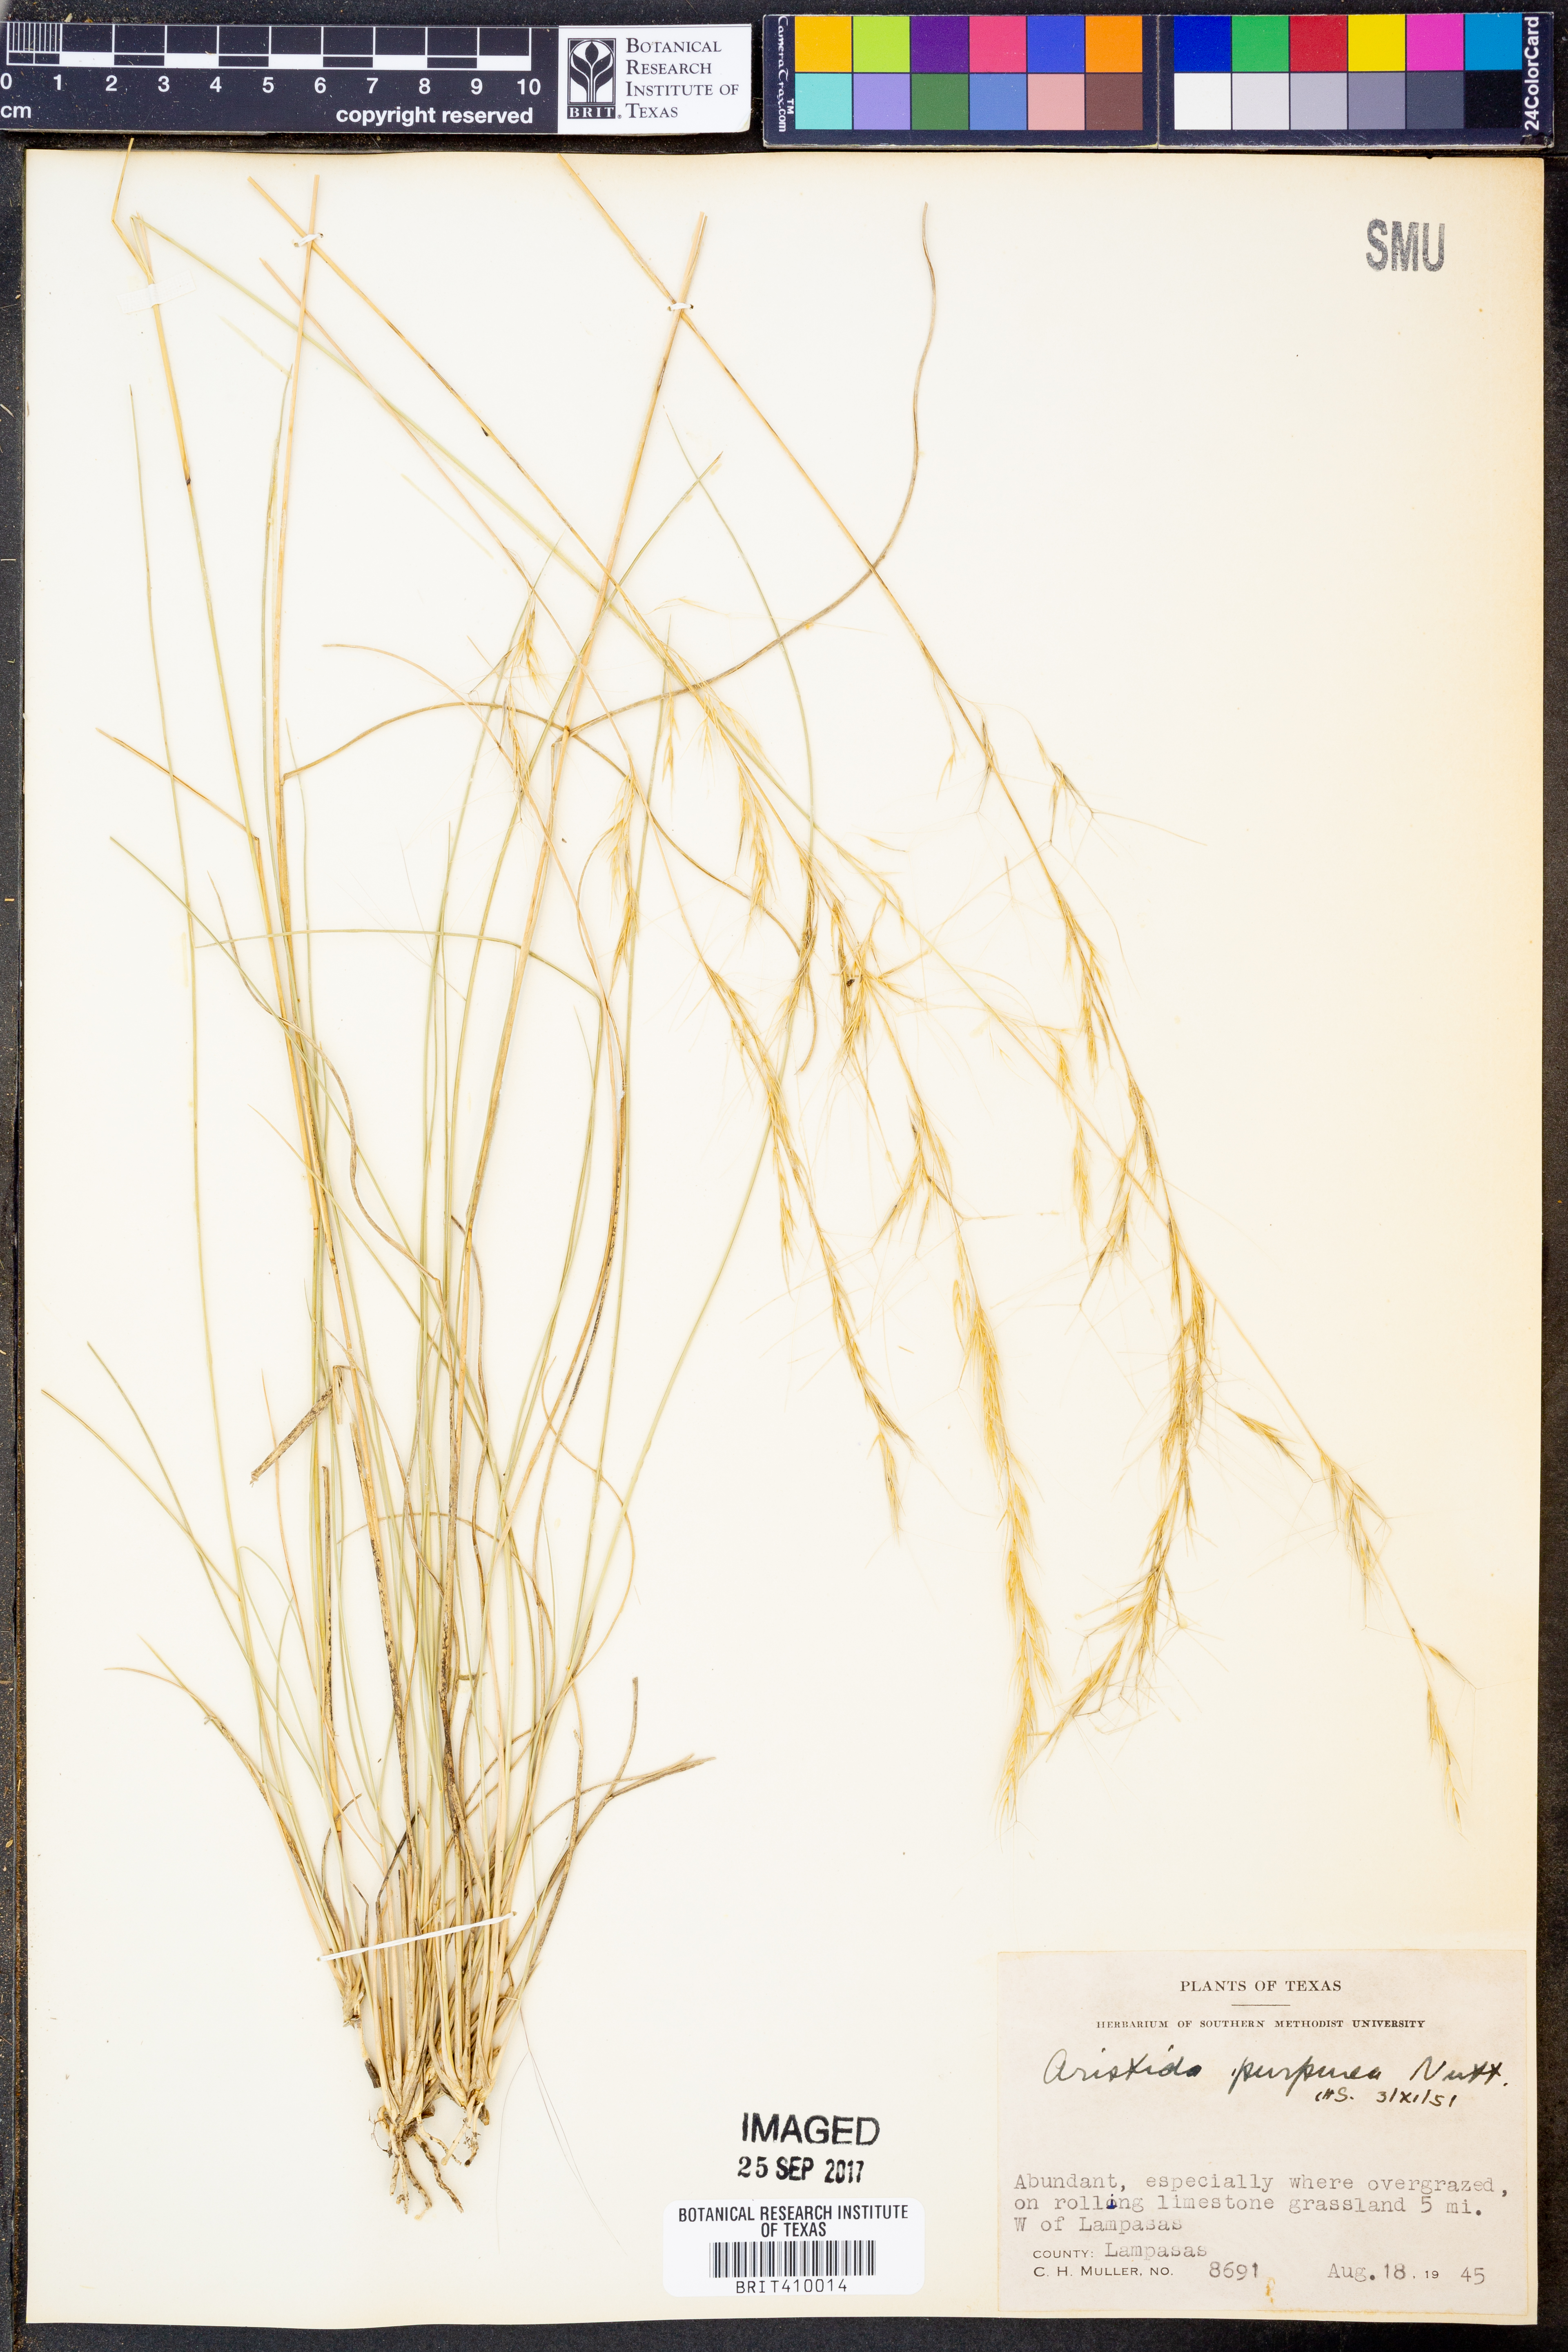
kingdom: Plantae
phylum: Tracheophyta
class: Liliopsida
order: Poales
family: Poaceae
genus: Aristida
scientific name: Aristida purpurea
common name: Purple threeawn
